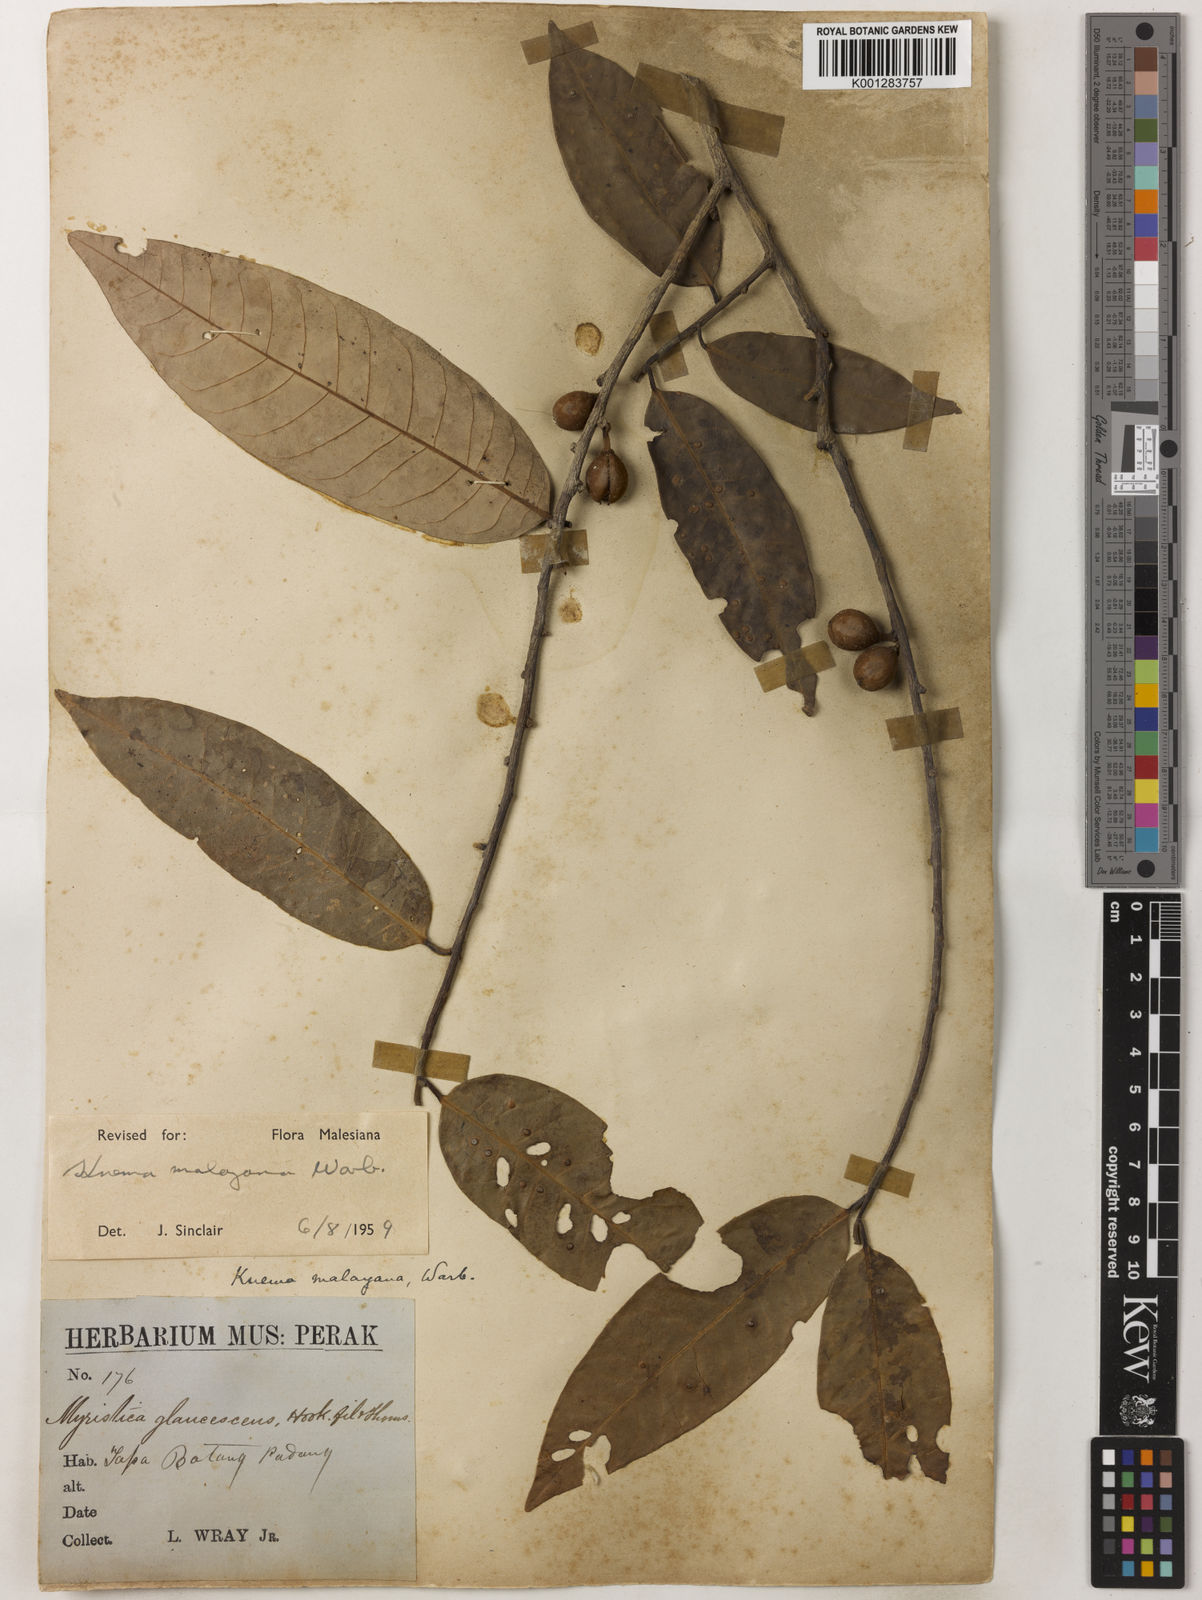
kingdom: Plantae
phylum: Tracheophyta
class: Magnoliopsida
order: Magnoliales
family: Myristicaceae
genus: Knema
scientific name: Knema malayana
